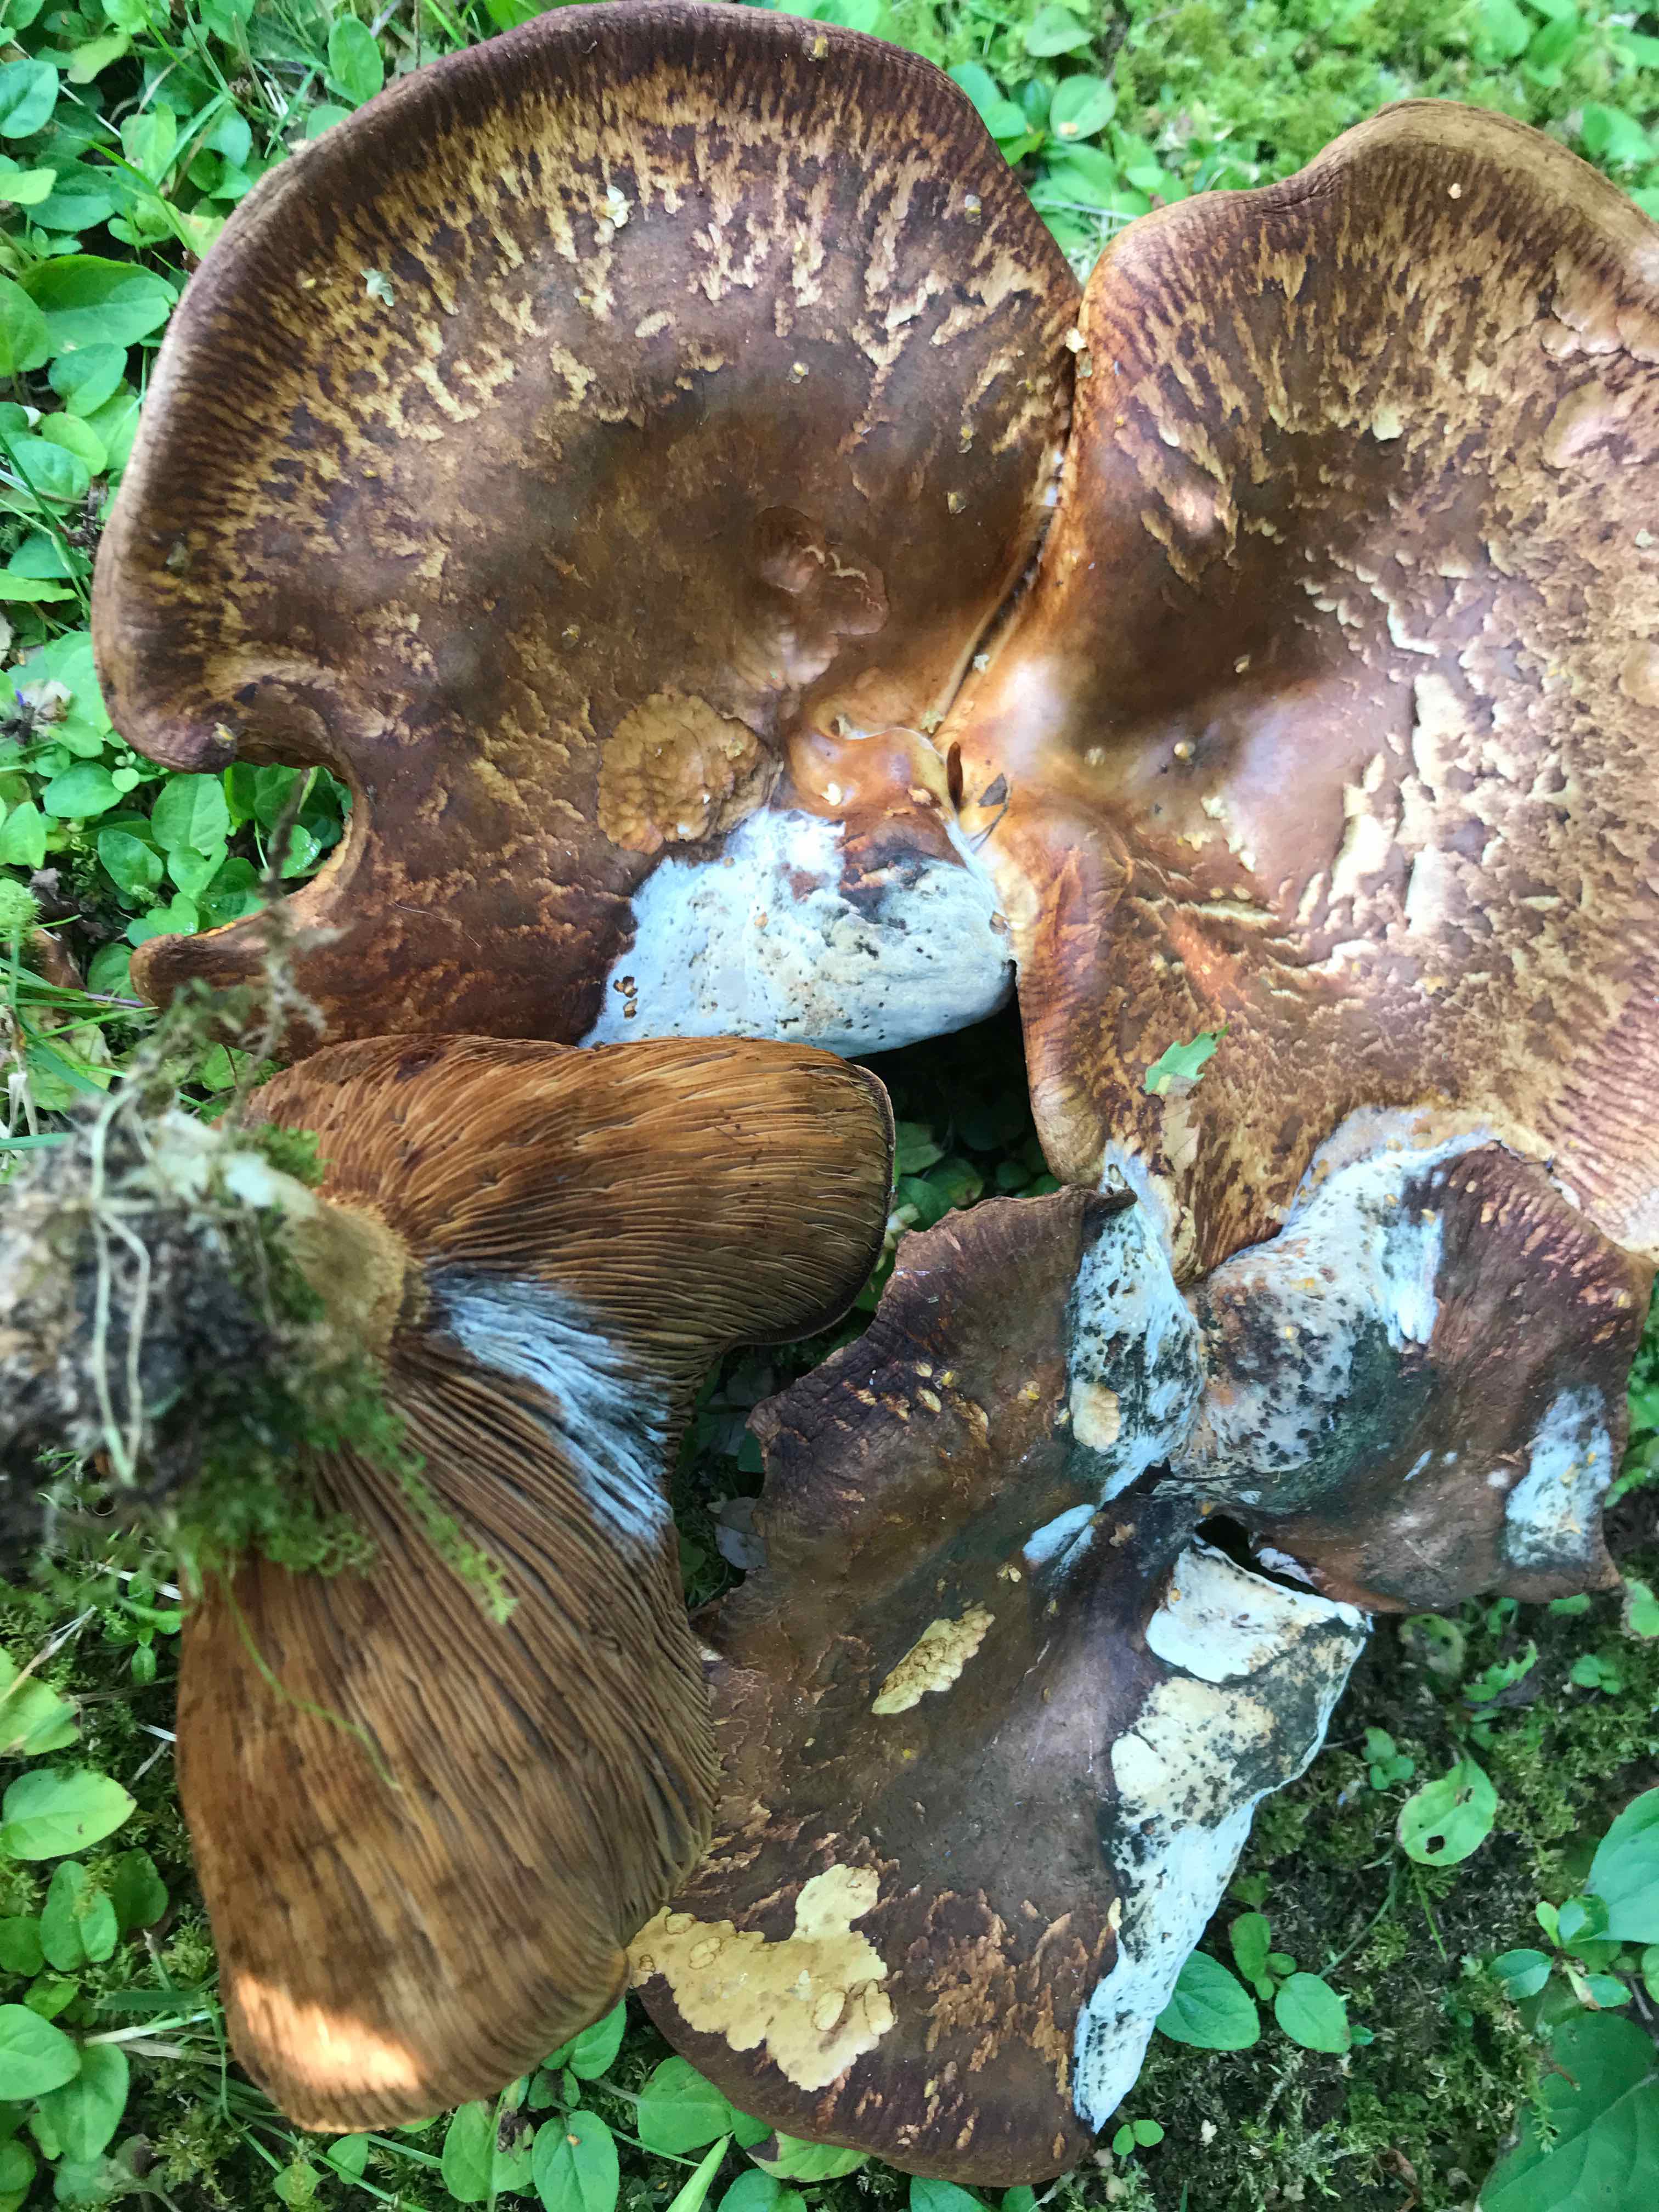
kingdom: Fungi
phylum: Basidiomycota
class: Agaricomycetes
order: Boletales
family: Paxillaceae
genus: Paxillus
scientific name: Paxillus
